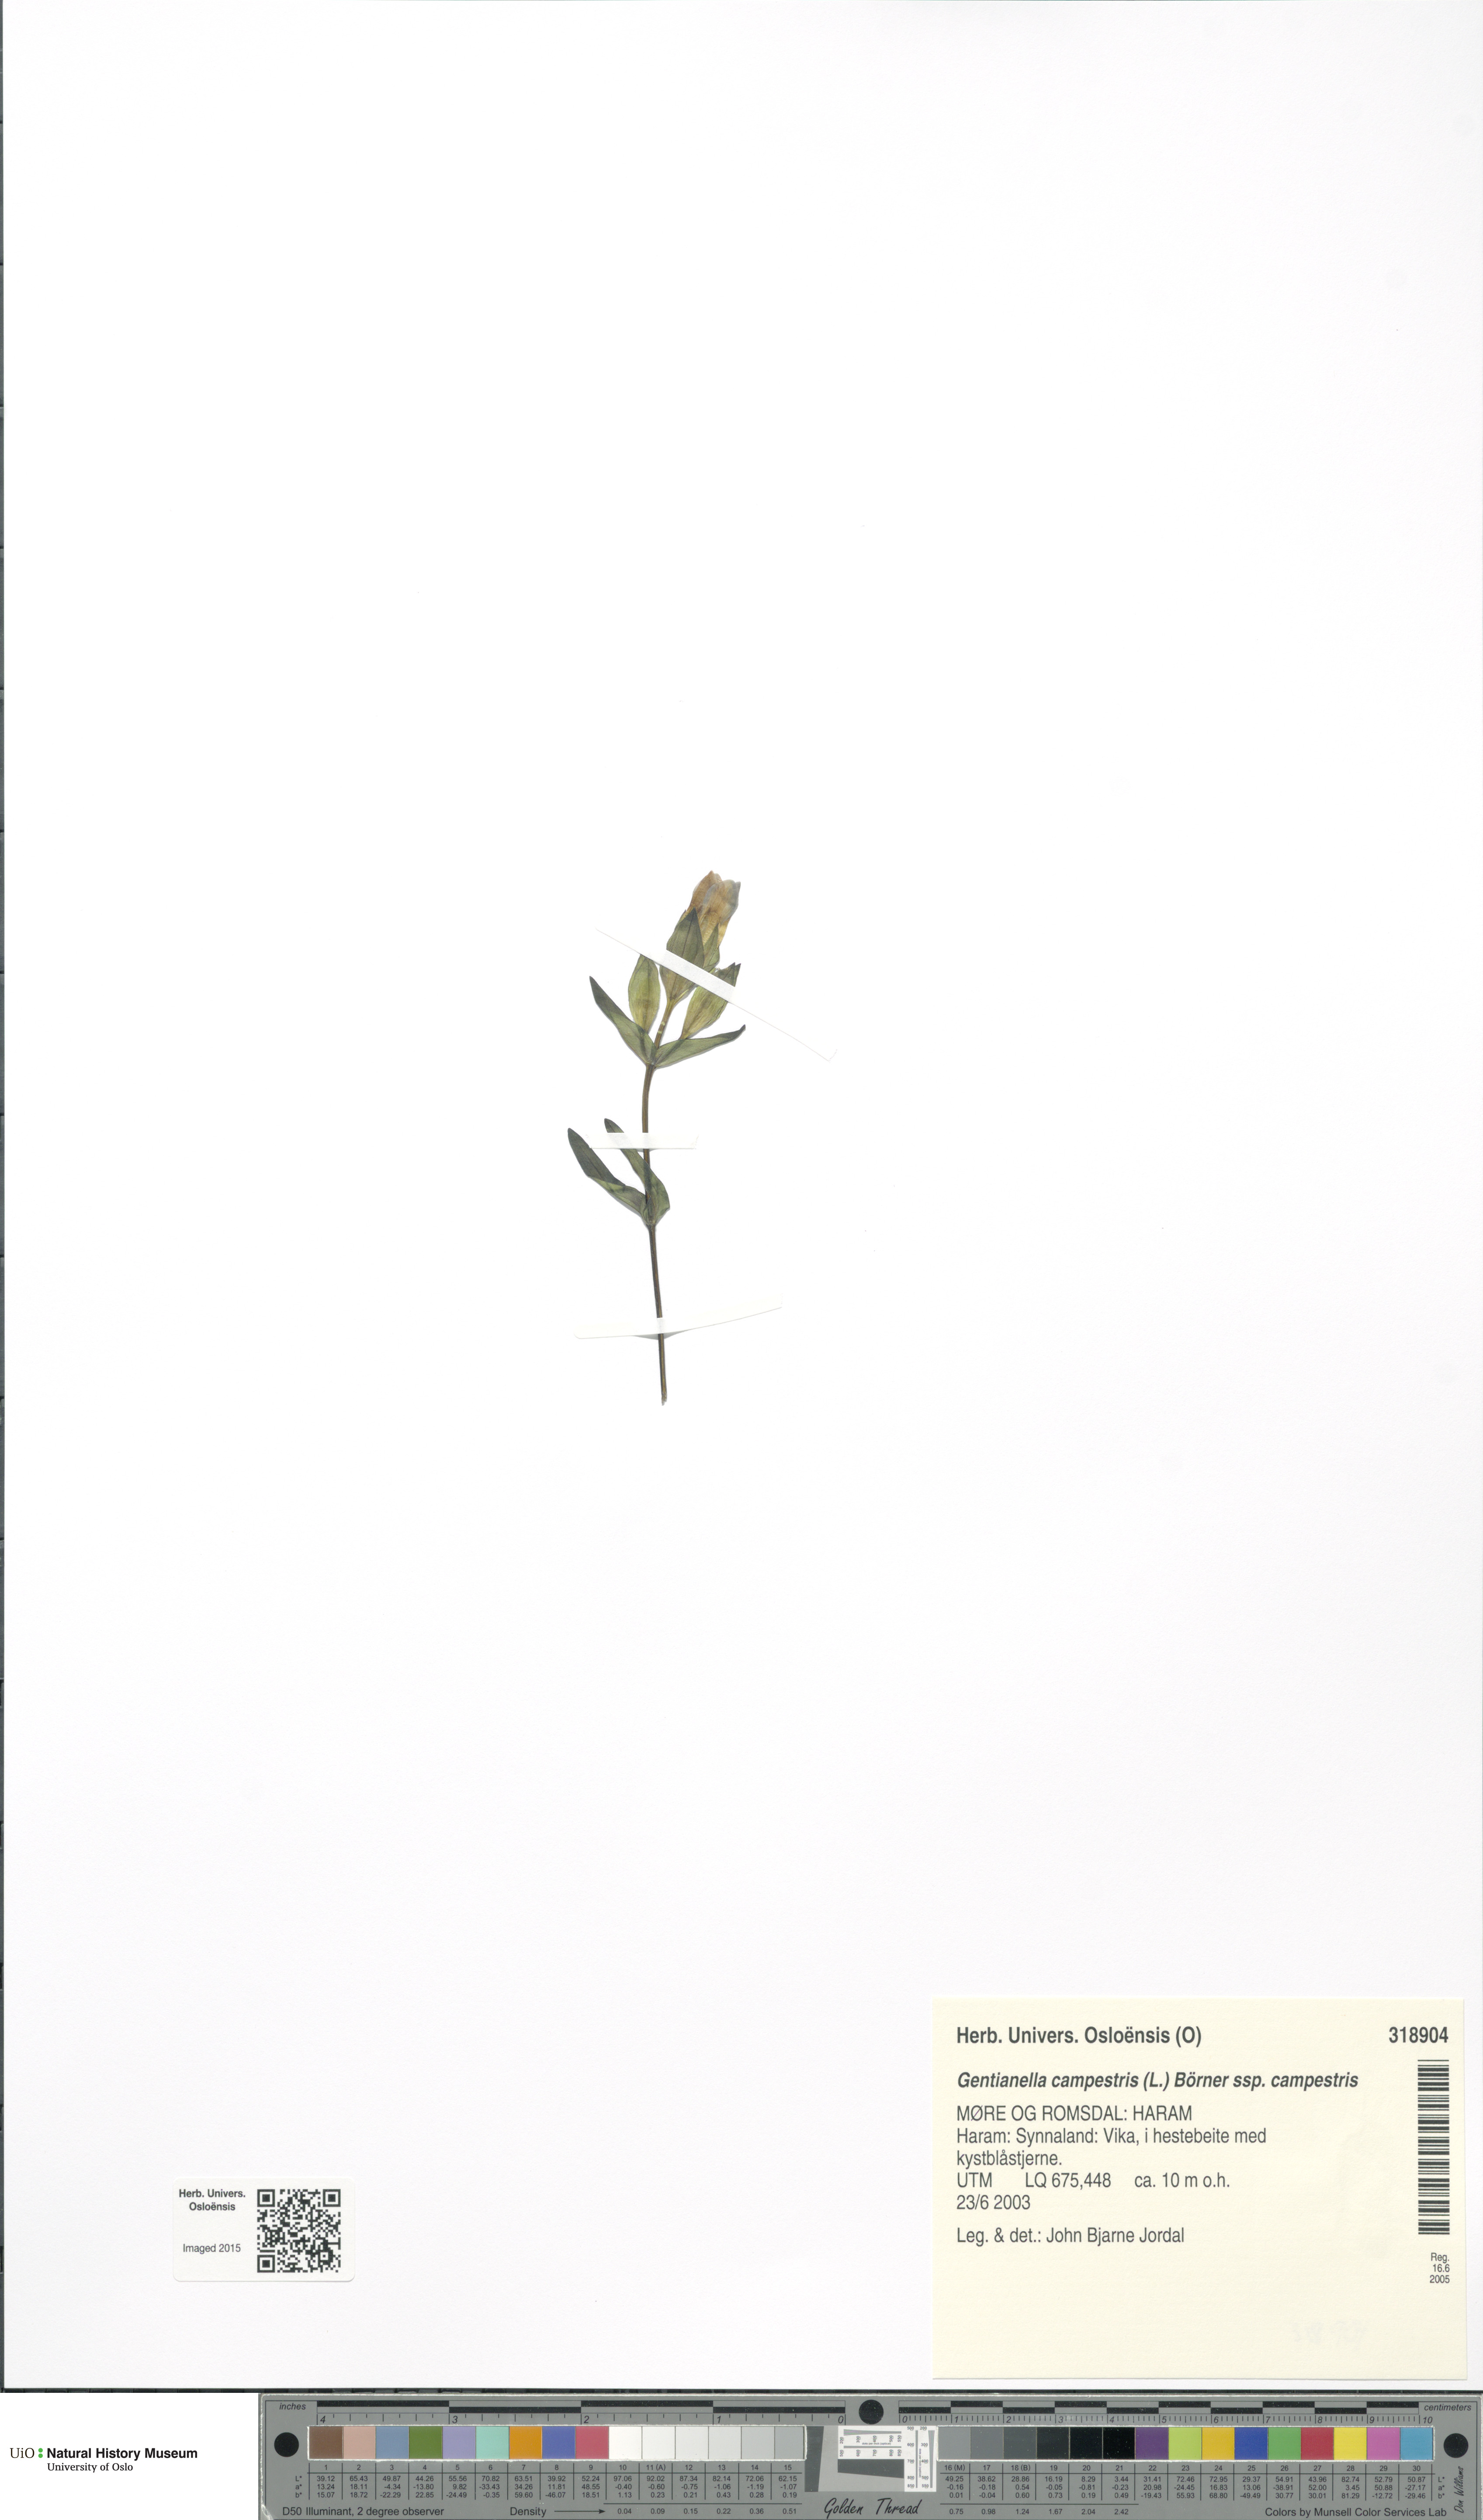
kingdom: Plantae
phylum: Tracheophyta
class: Magnoliopsida
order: Gentianales
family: Gentianaceae
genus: Gentianella
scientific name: Gentianella campestris
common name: Field gentian
